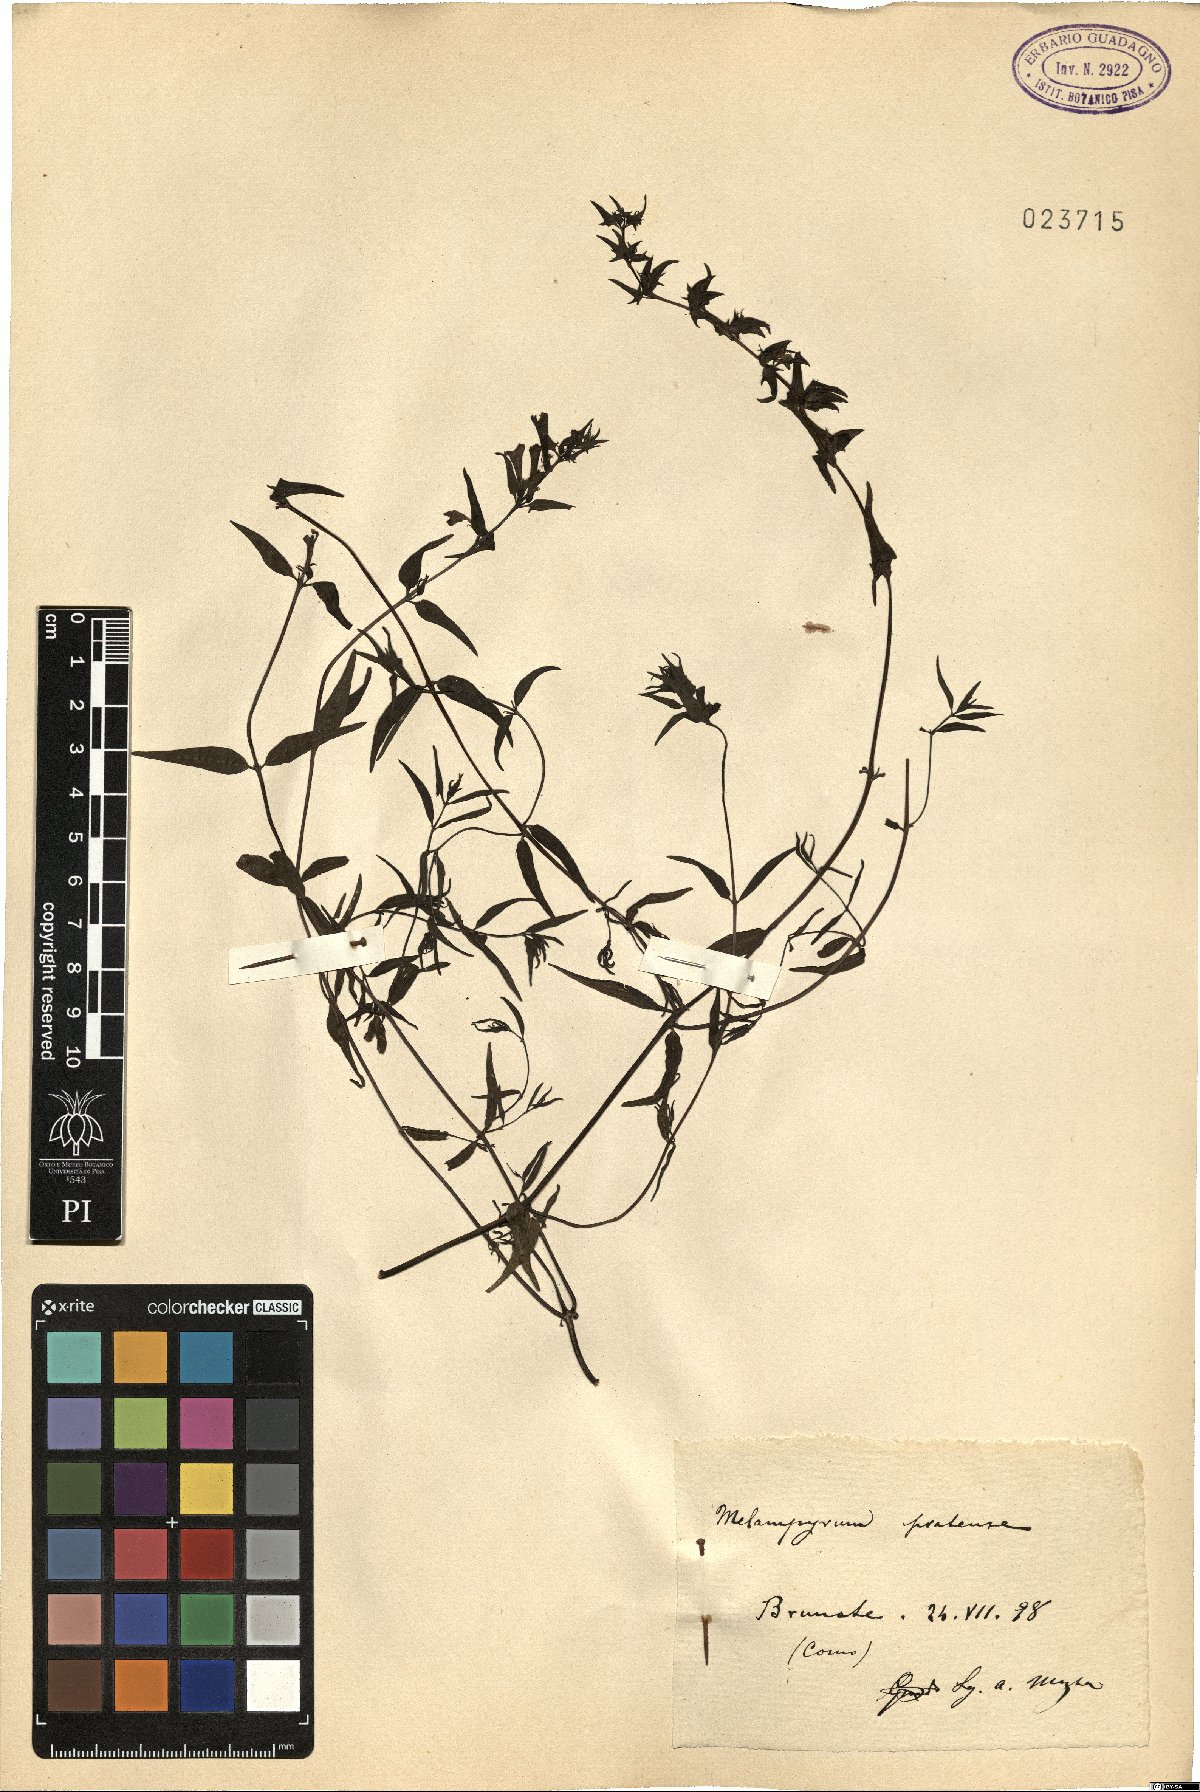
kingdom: Plantae
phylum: Tracheophyta
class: Magnoliopsida
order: Lamiales
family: Orobanchaceae
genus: Melampyrum
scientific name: Melampyrum pratense
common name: Common cow-wheat
